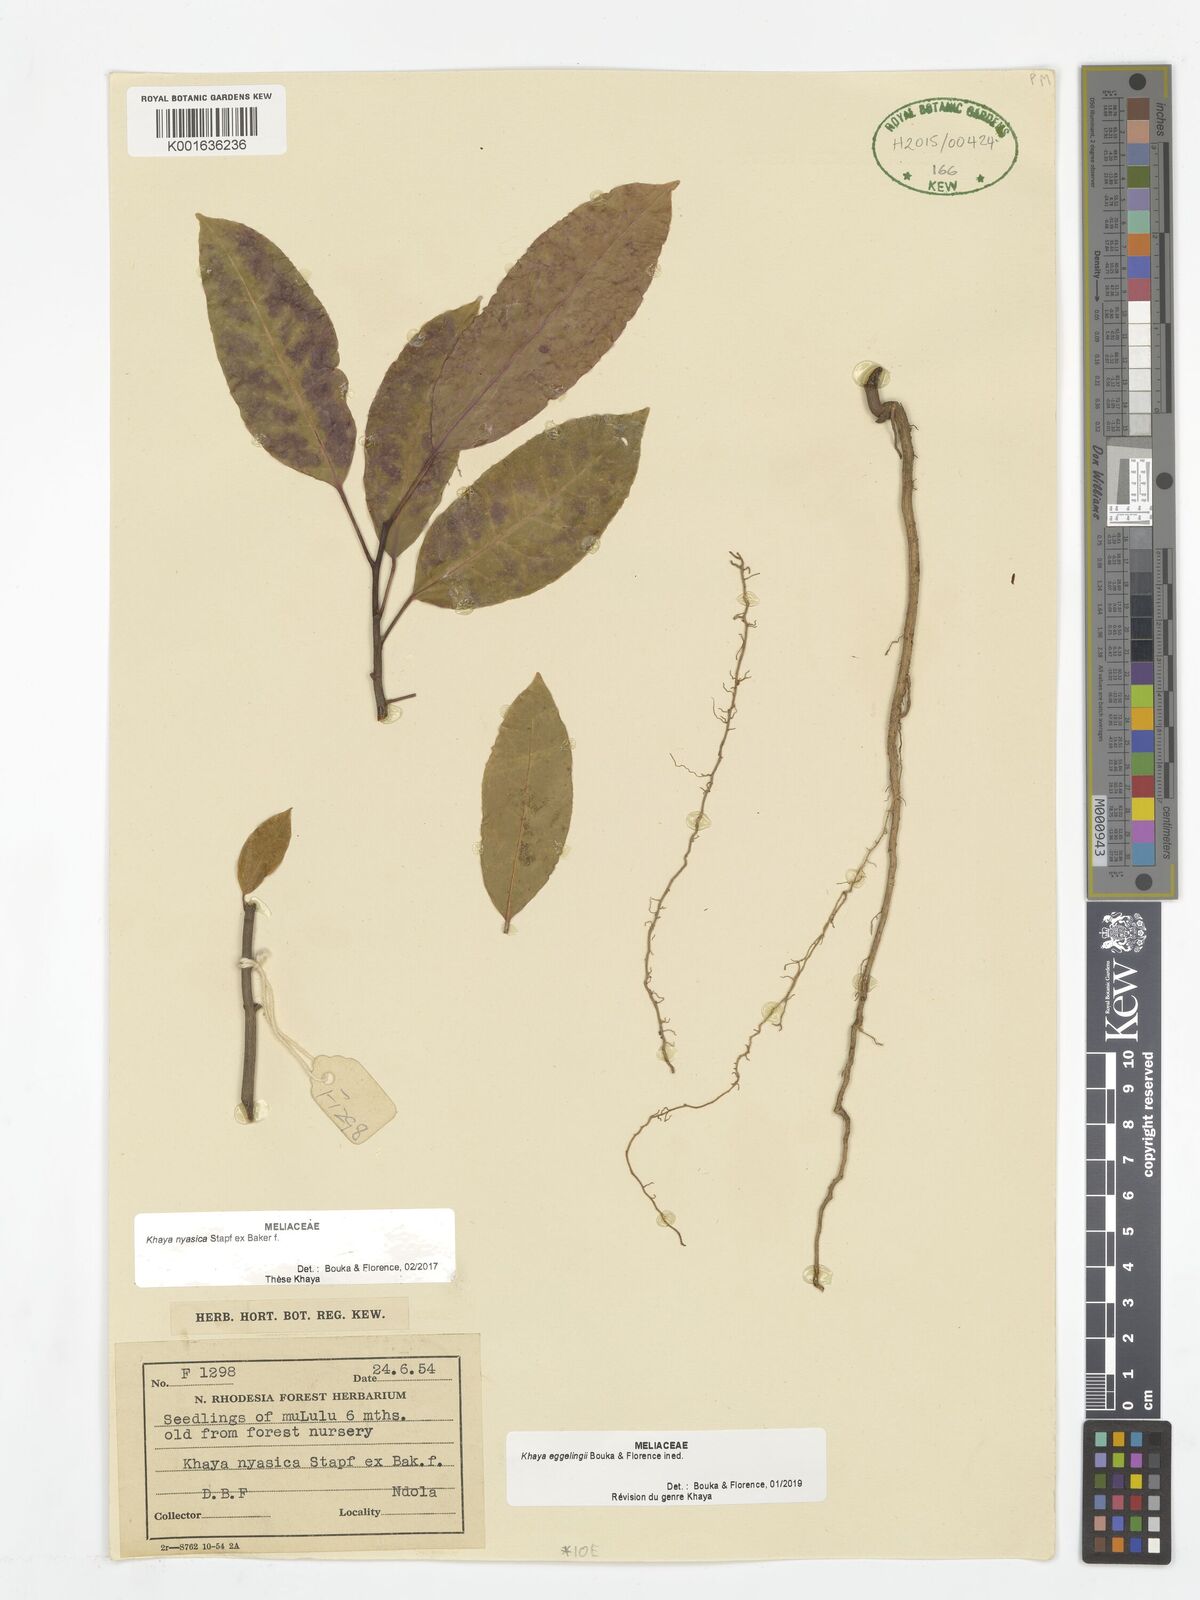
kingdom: Plantae
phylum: Tracheophyta
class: Magnoliopsida
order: Sapindales
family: Meliaceae
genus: Khaya
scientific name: Khaya
